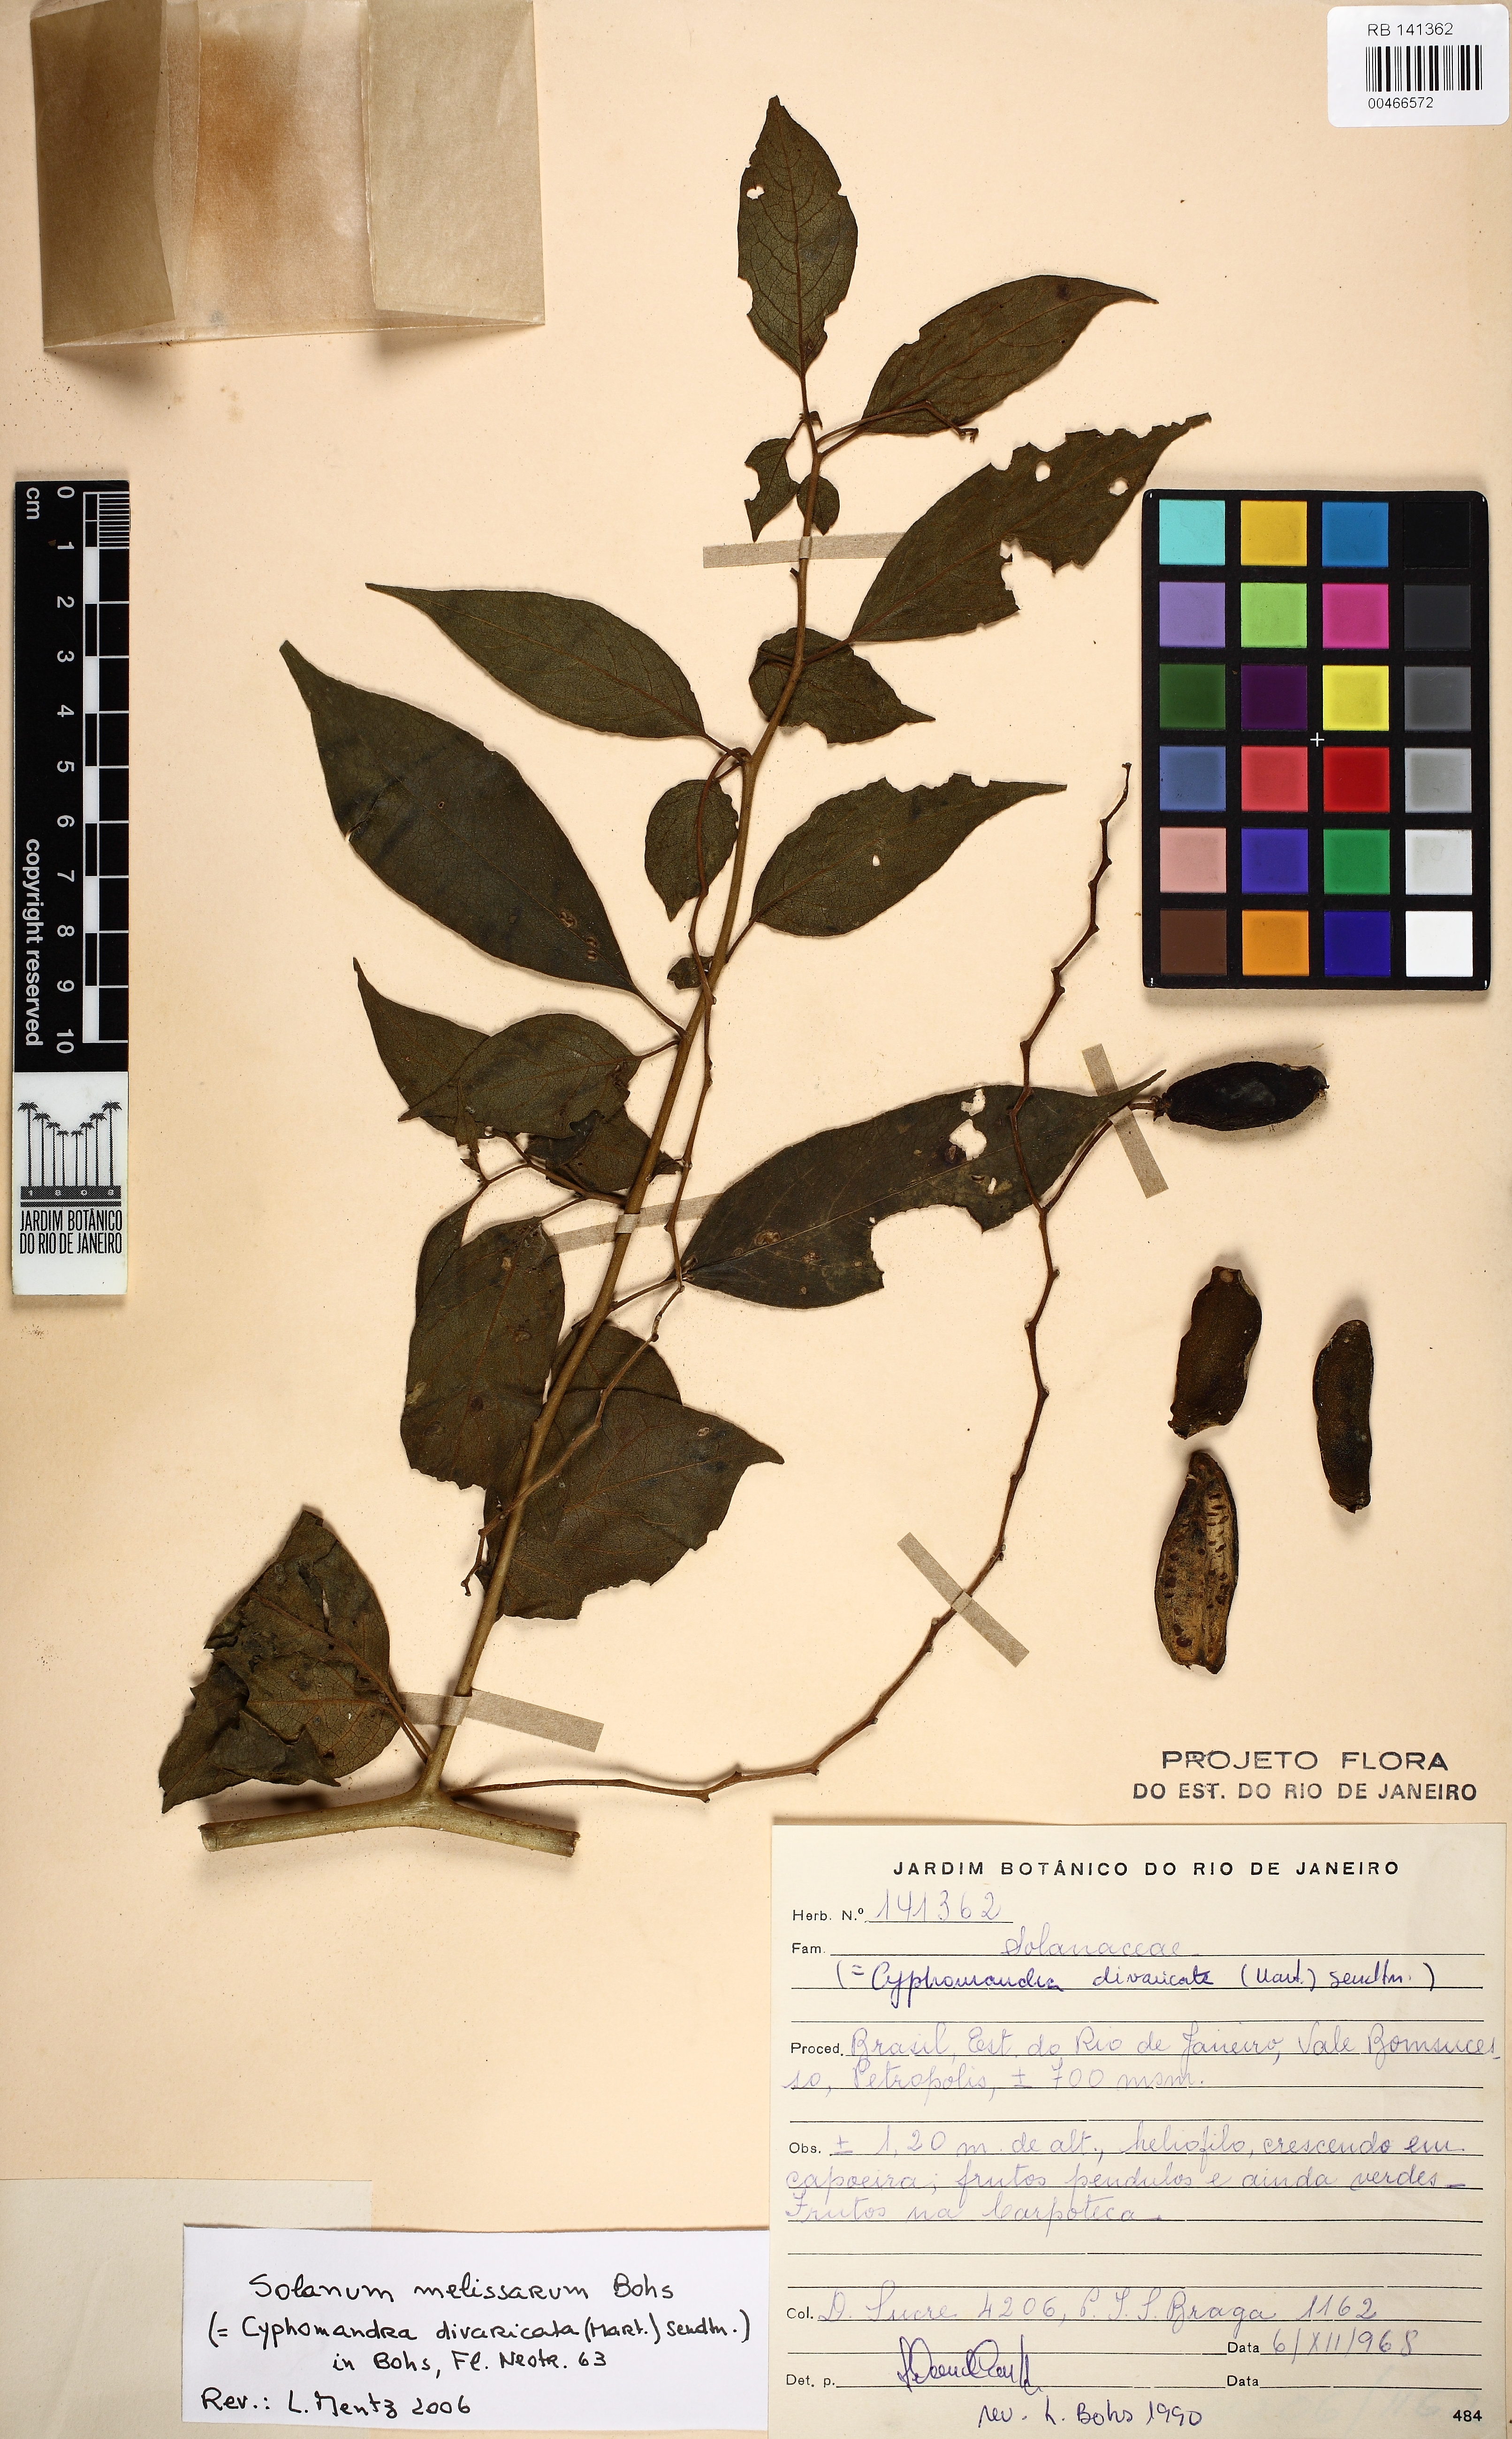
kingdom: Plantae
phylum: Tracheophyta
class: Magnoliopsida
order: Solanales
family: Solanaceae
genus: Solanum
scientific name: Solanum melissarum
